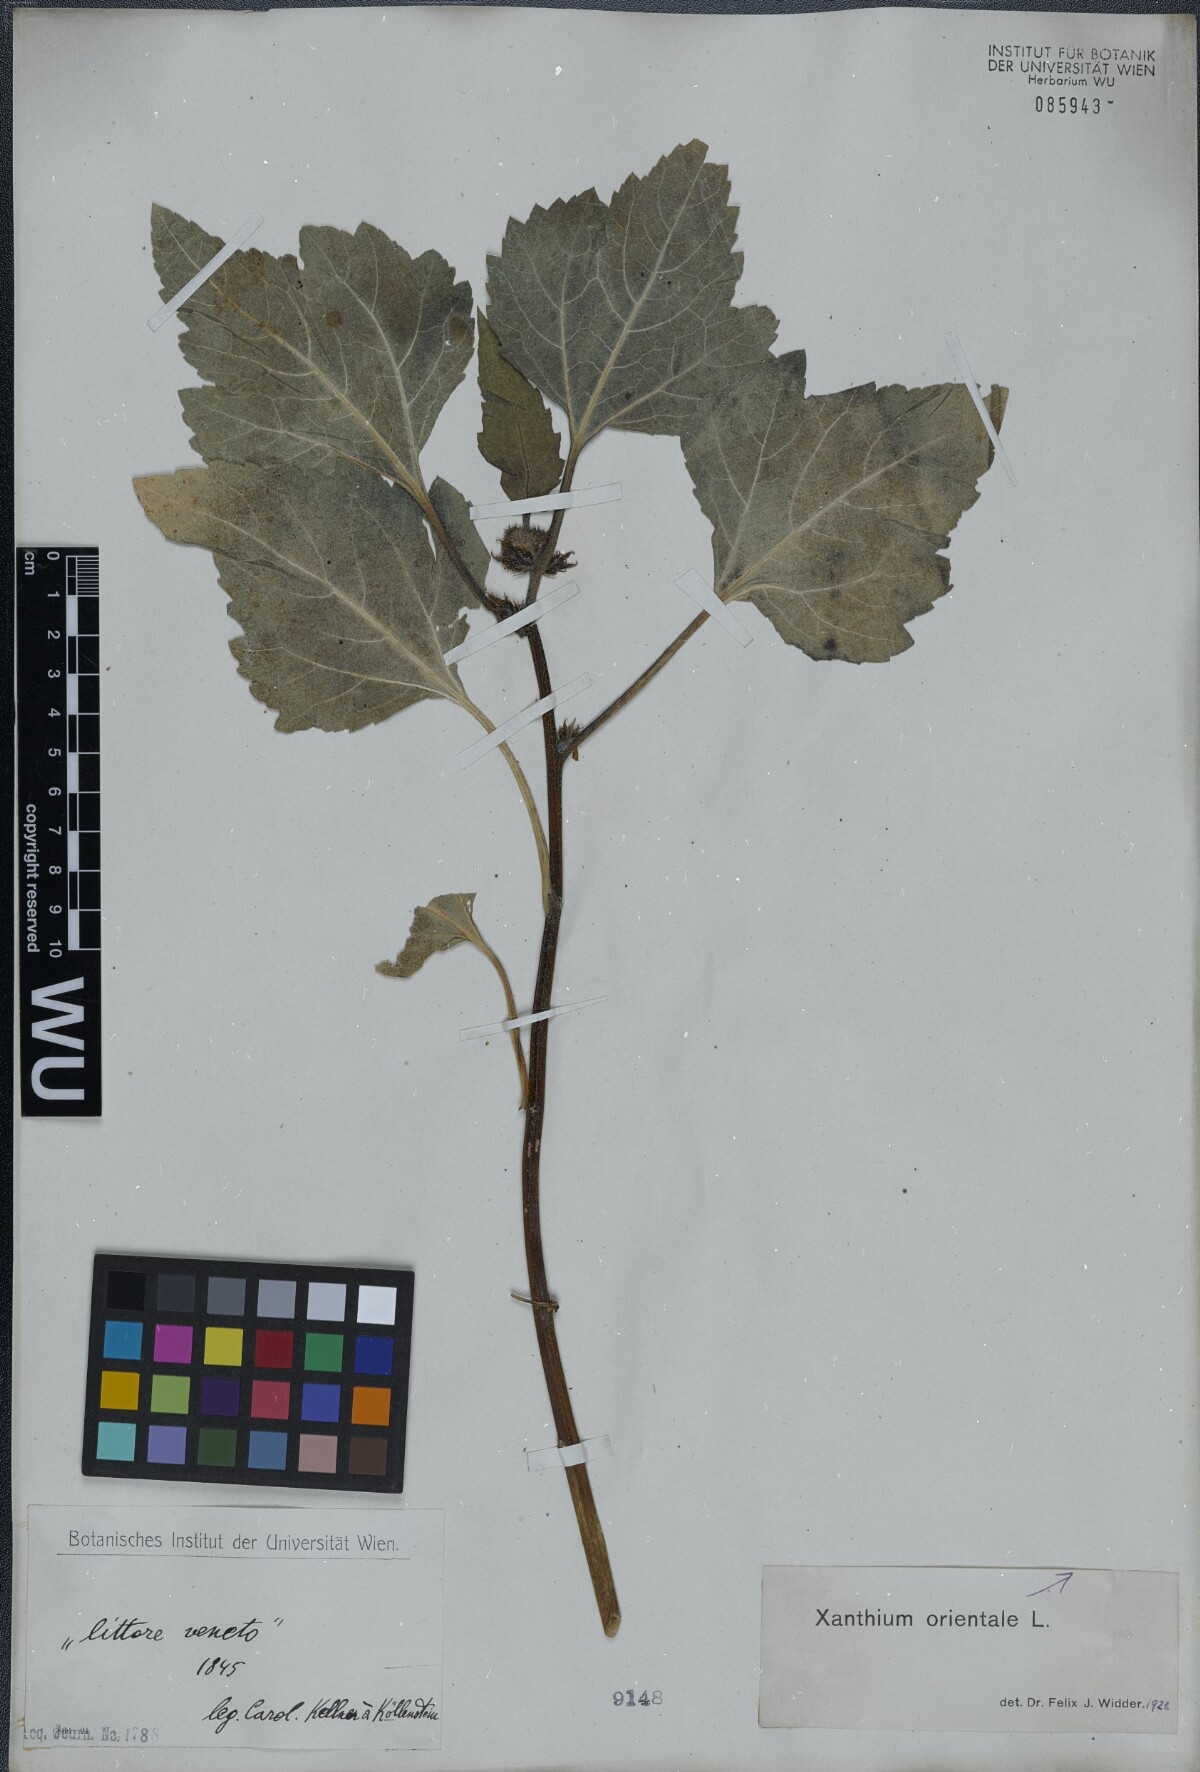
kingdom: Plantae
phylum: Tracheophyta
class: Magnoliopsida
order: Asterales
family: Asteraceae
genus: Xanthium
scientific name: Xanthium orientale
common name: Californian burr
